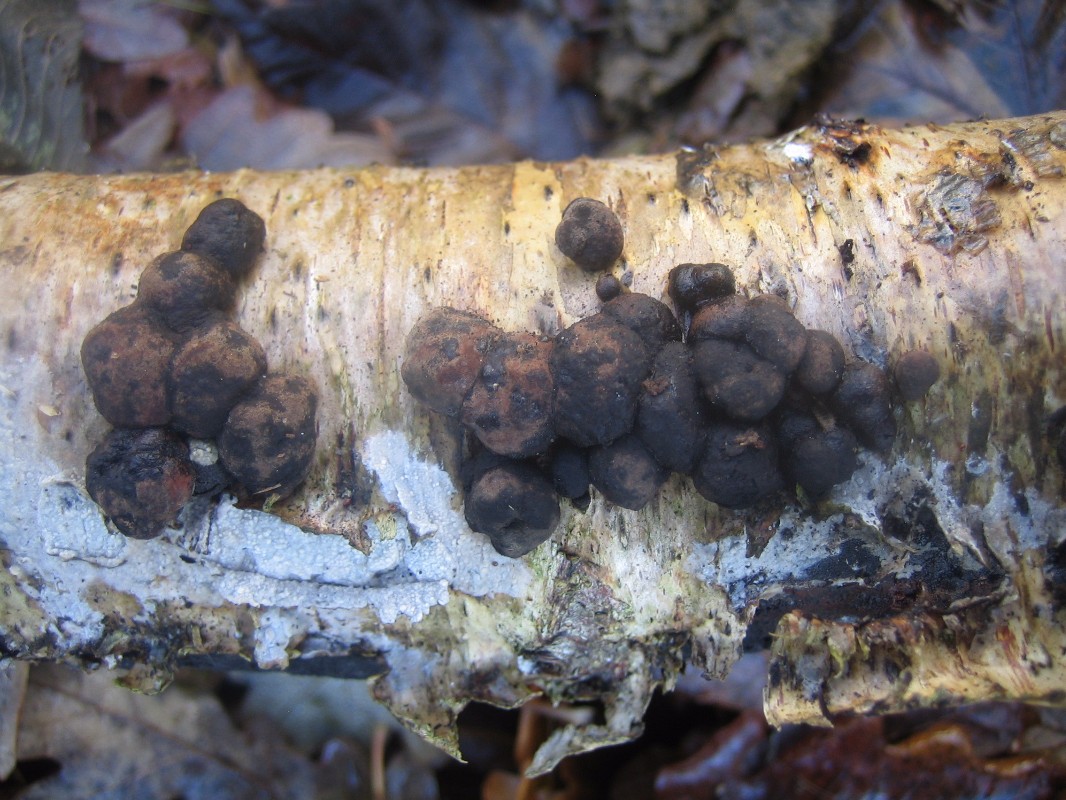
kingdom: Fungi
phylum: Ascomycota
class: Sordariomycetes
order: Xylariales
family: Hypoxylaceae
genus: Jackrogersella
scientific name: Jackrogersella multiformis
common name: foranderlig kulbær
